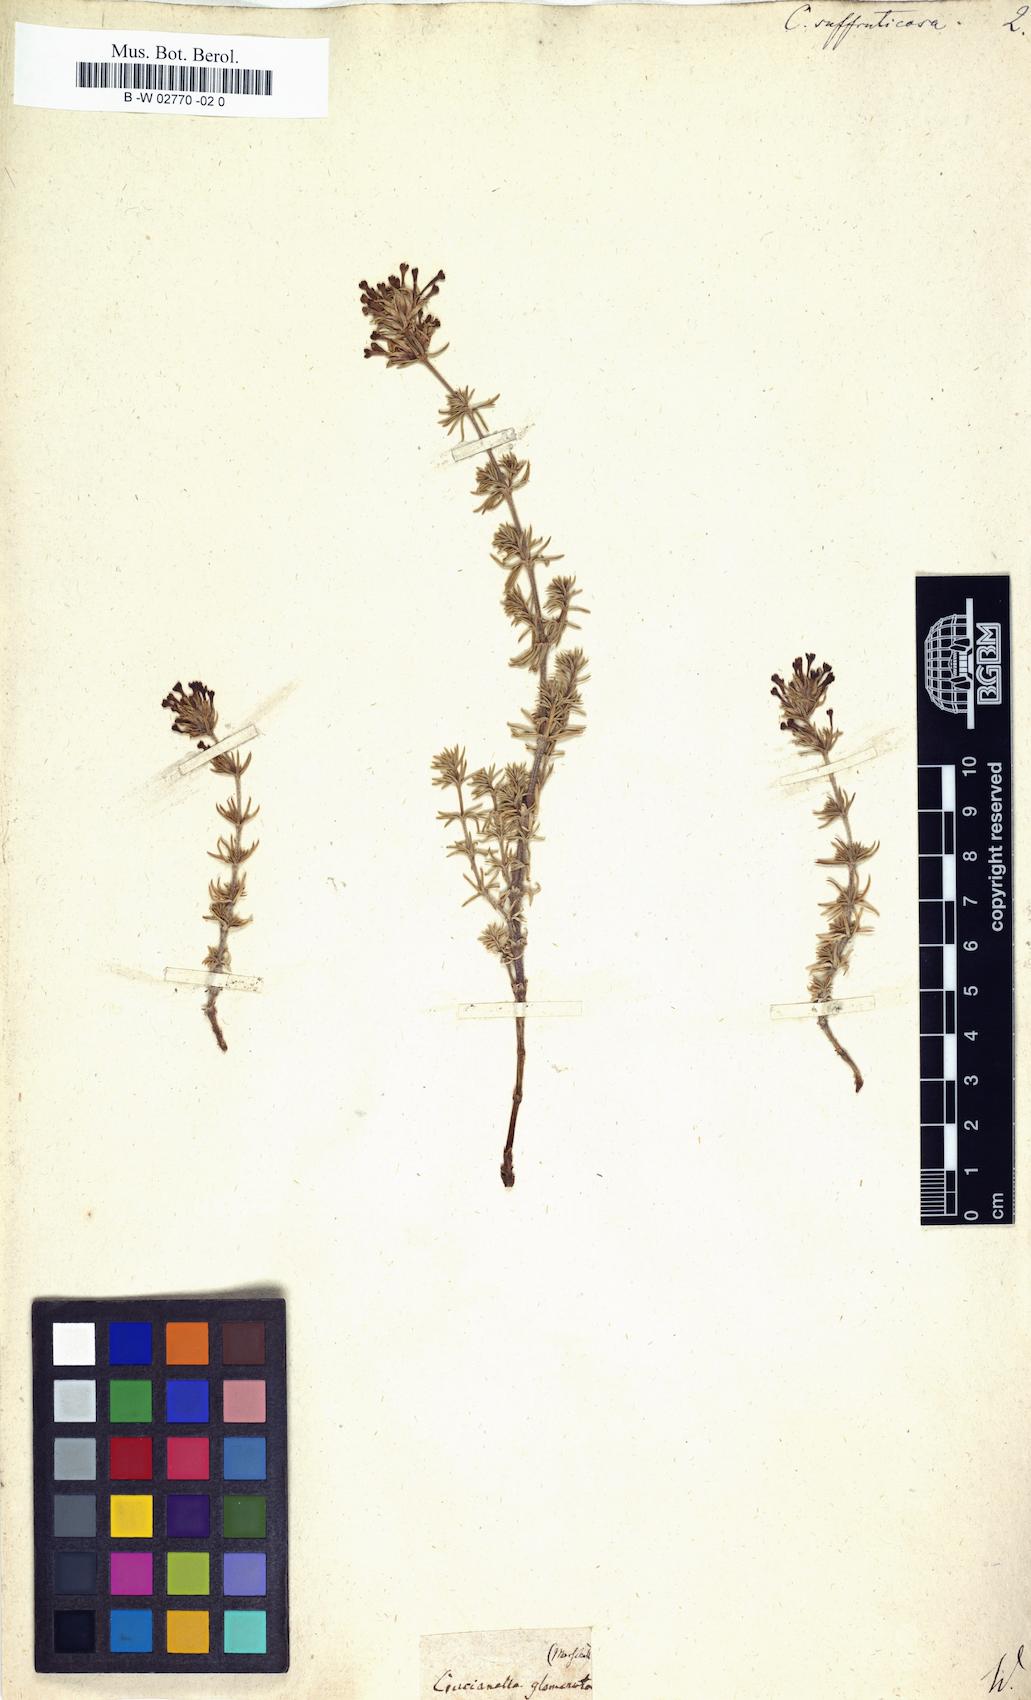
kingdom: Plantae
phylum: Tracheophyta
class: Magnoliopsida
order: Gentianales
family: Rubiaceae
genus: Asperula
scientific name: Asperula glomerata
